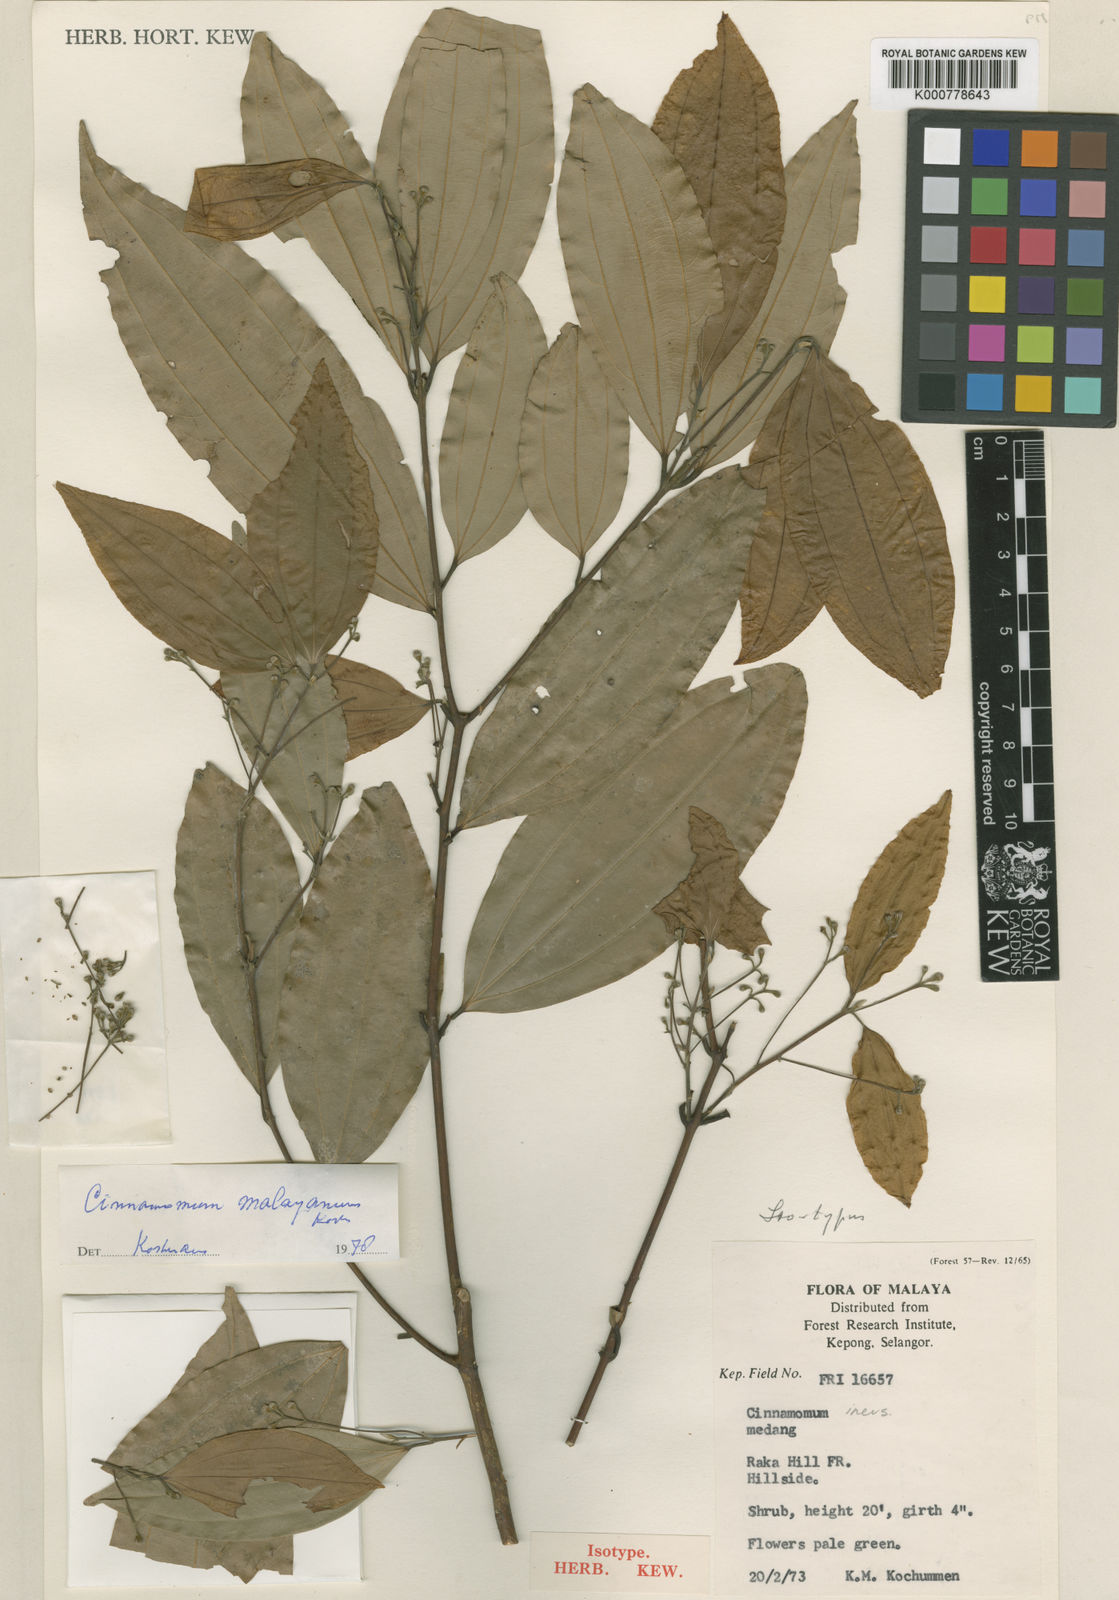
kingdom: Plantae
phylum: Tracheophyta
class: Magnoliopsida
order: Laurales
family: Lauraceae
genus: Cinnamomum
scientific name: Cinnamomum vimineum
